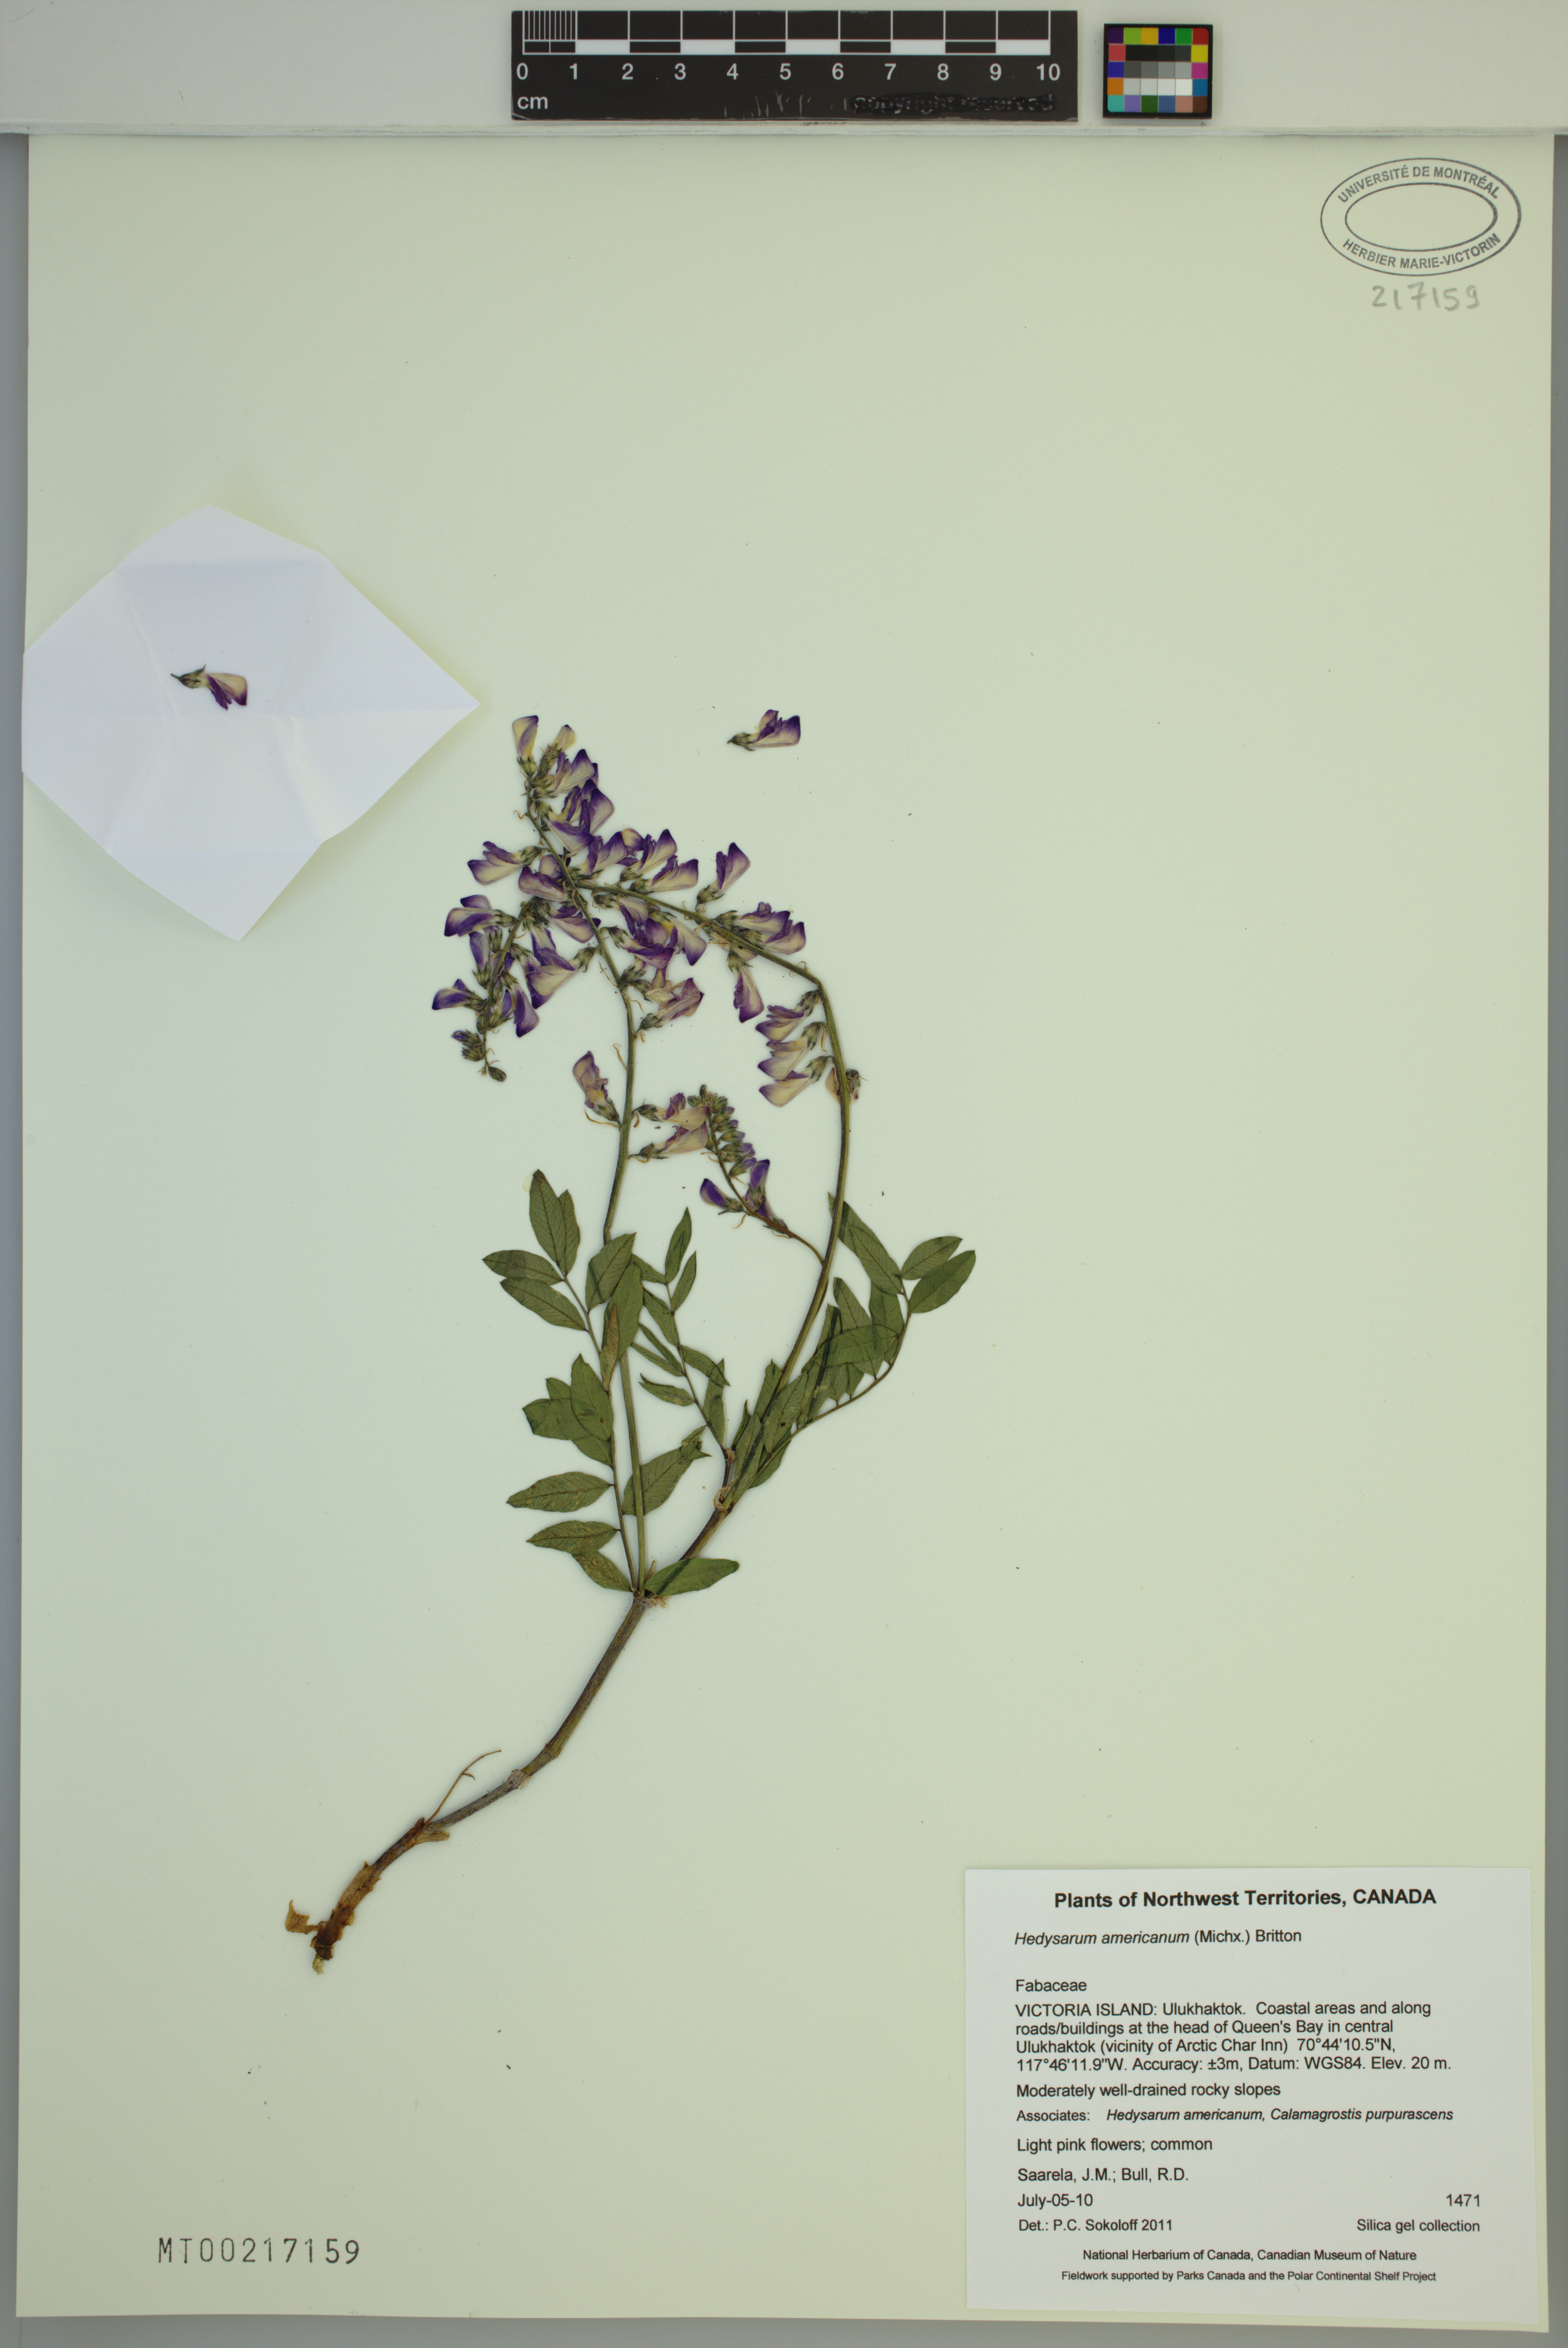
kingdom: Plantae
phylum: Tracheophyta
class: Magnoliopsida
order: Fabales
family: Fabaceae
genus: Hedysarum
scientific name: Hedysarum americanum
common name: Alpine hedysarum
